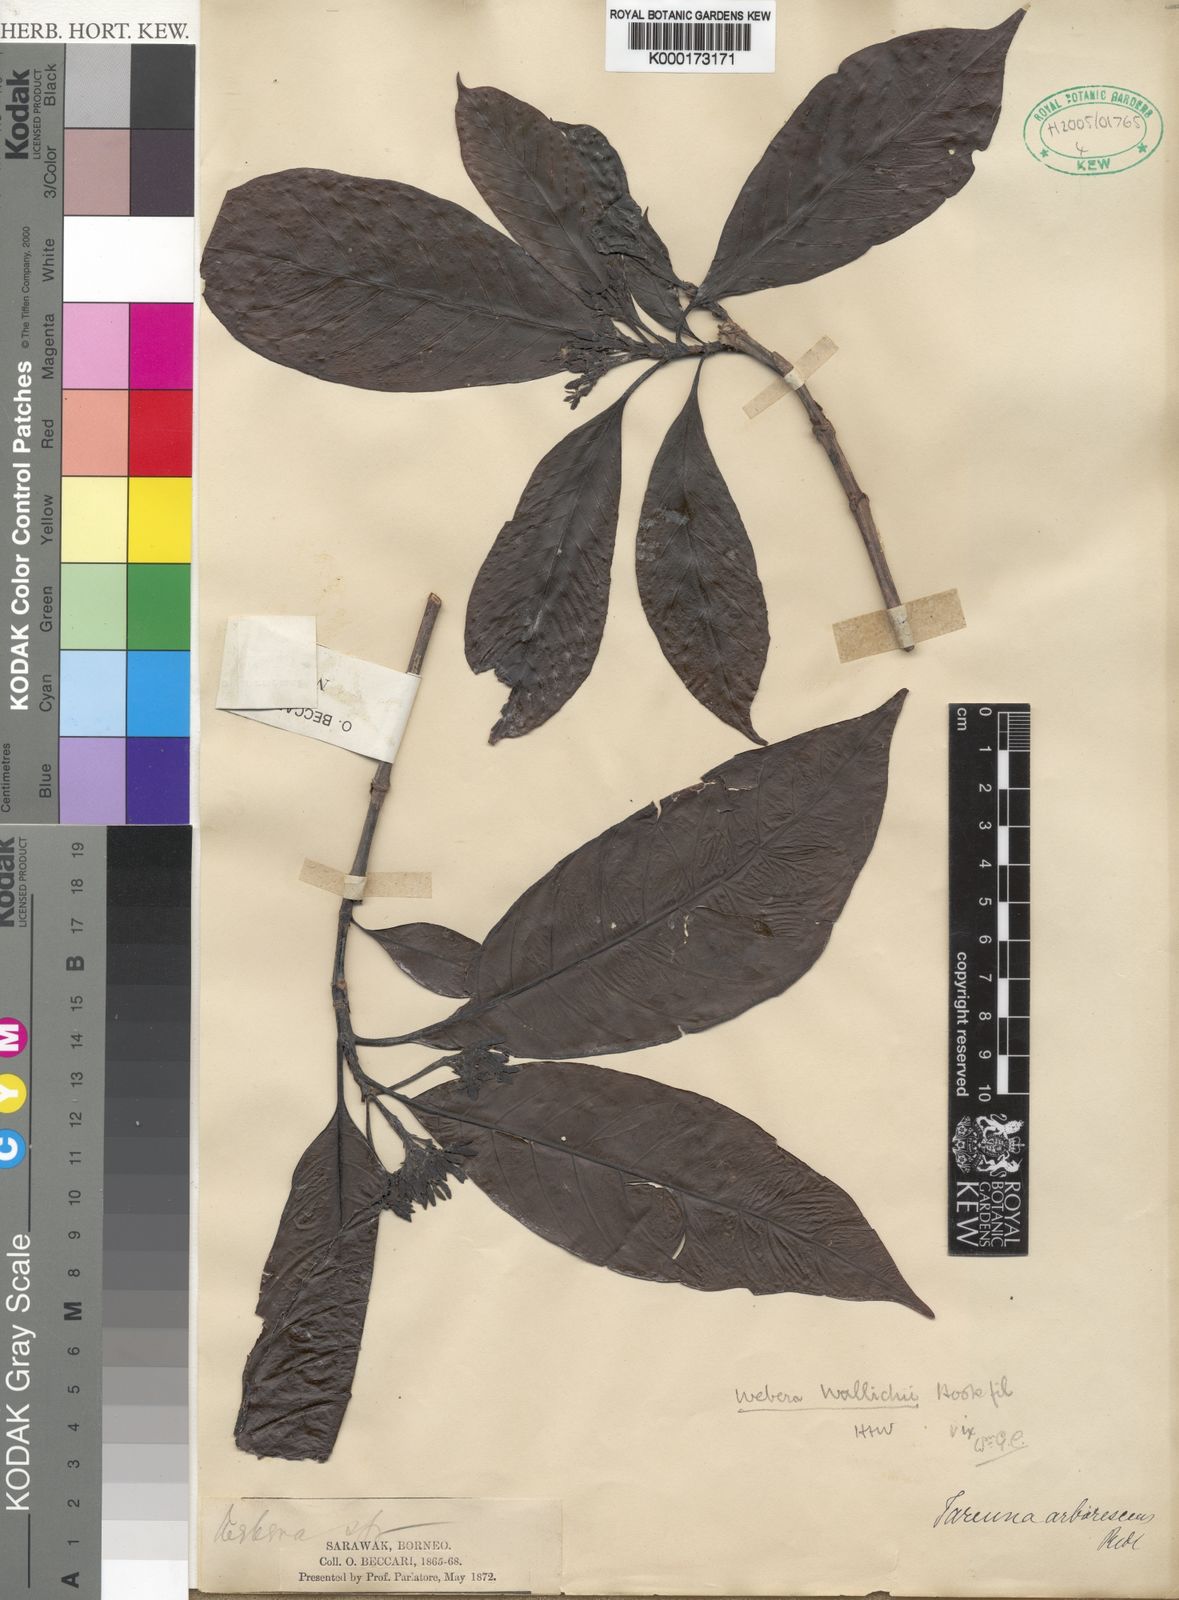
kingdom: Plantae
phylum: Tracheophyta
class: Magnoliopsida
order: Gentianales
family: Rubiaceae
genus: Tarenna
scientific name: Tarenna arborescens
